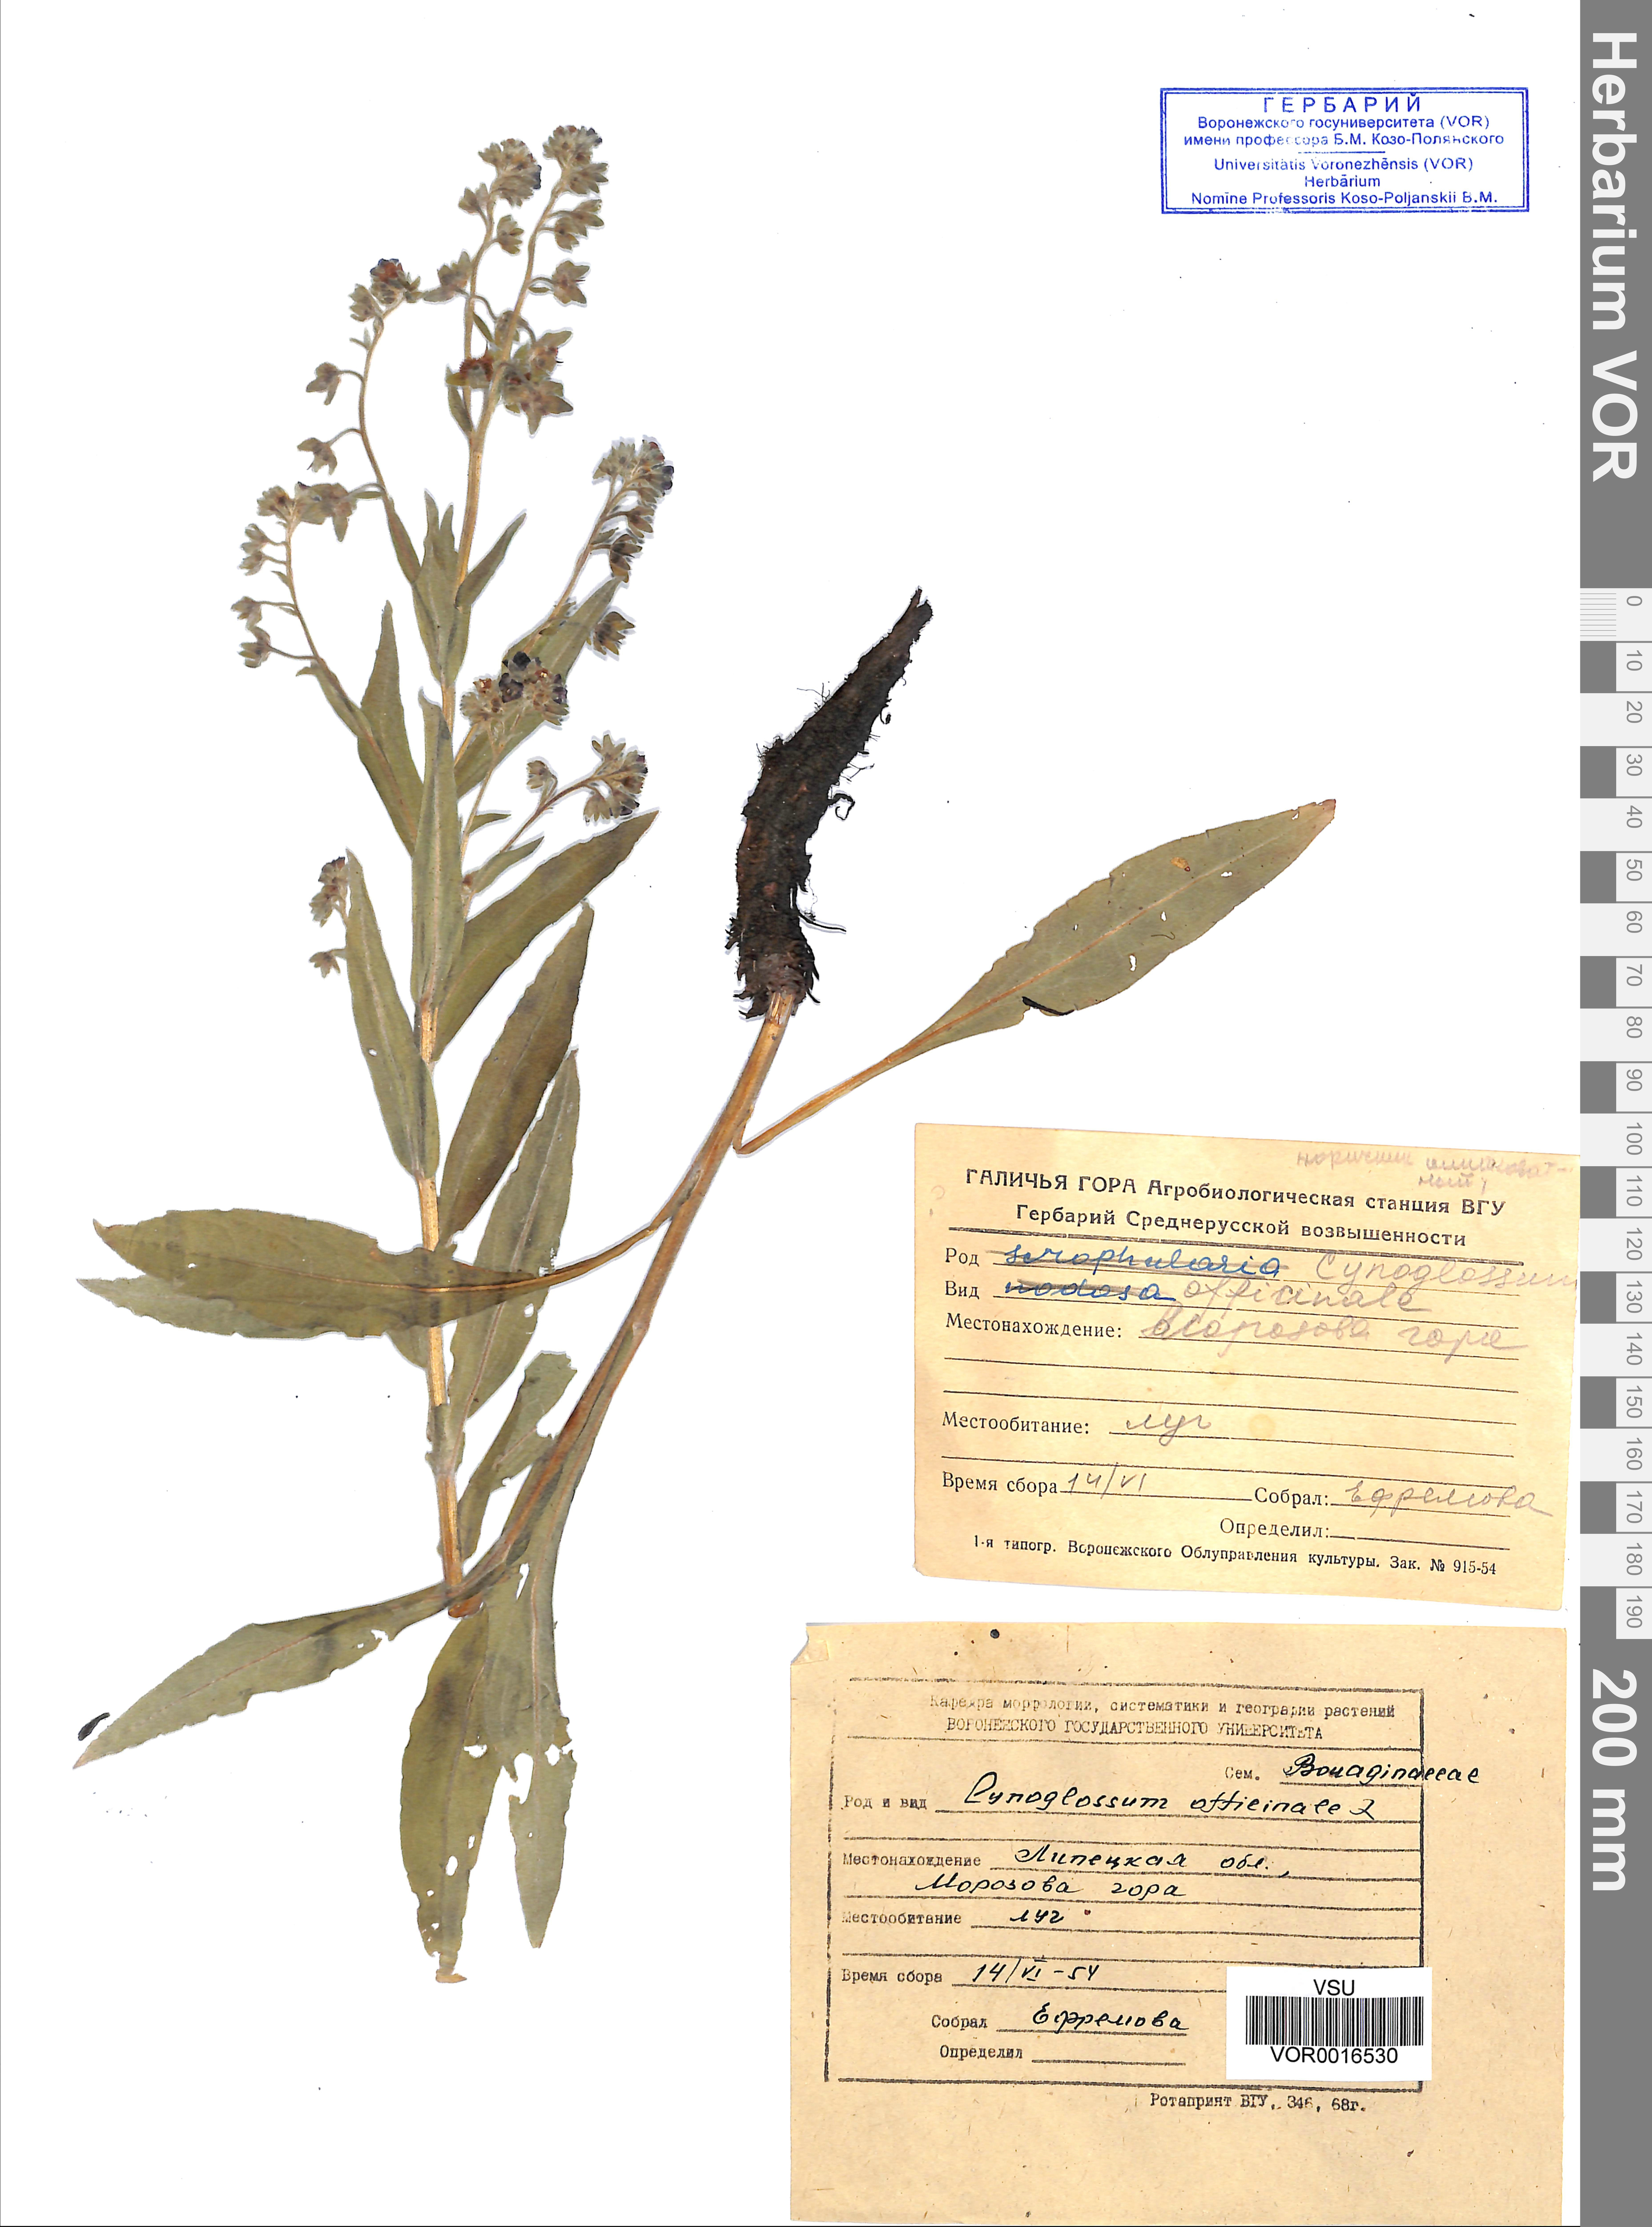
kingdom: Plantae
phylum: Tracheophyta
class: Magnoliopsida
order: Boraginales
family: Boraginaceae
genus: Cynoglossum
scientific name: Cynoglossum officinale
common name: Hound's-tongue
